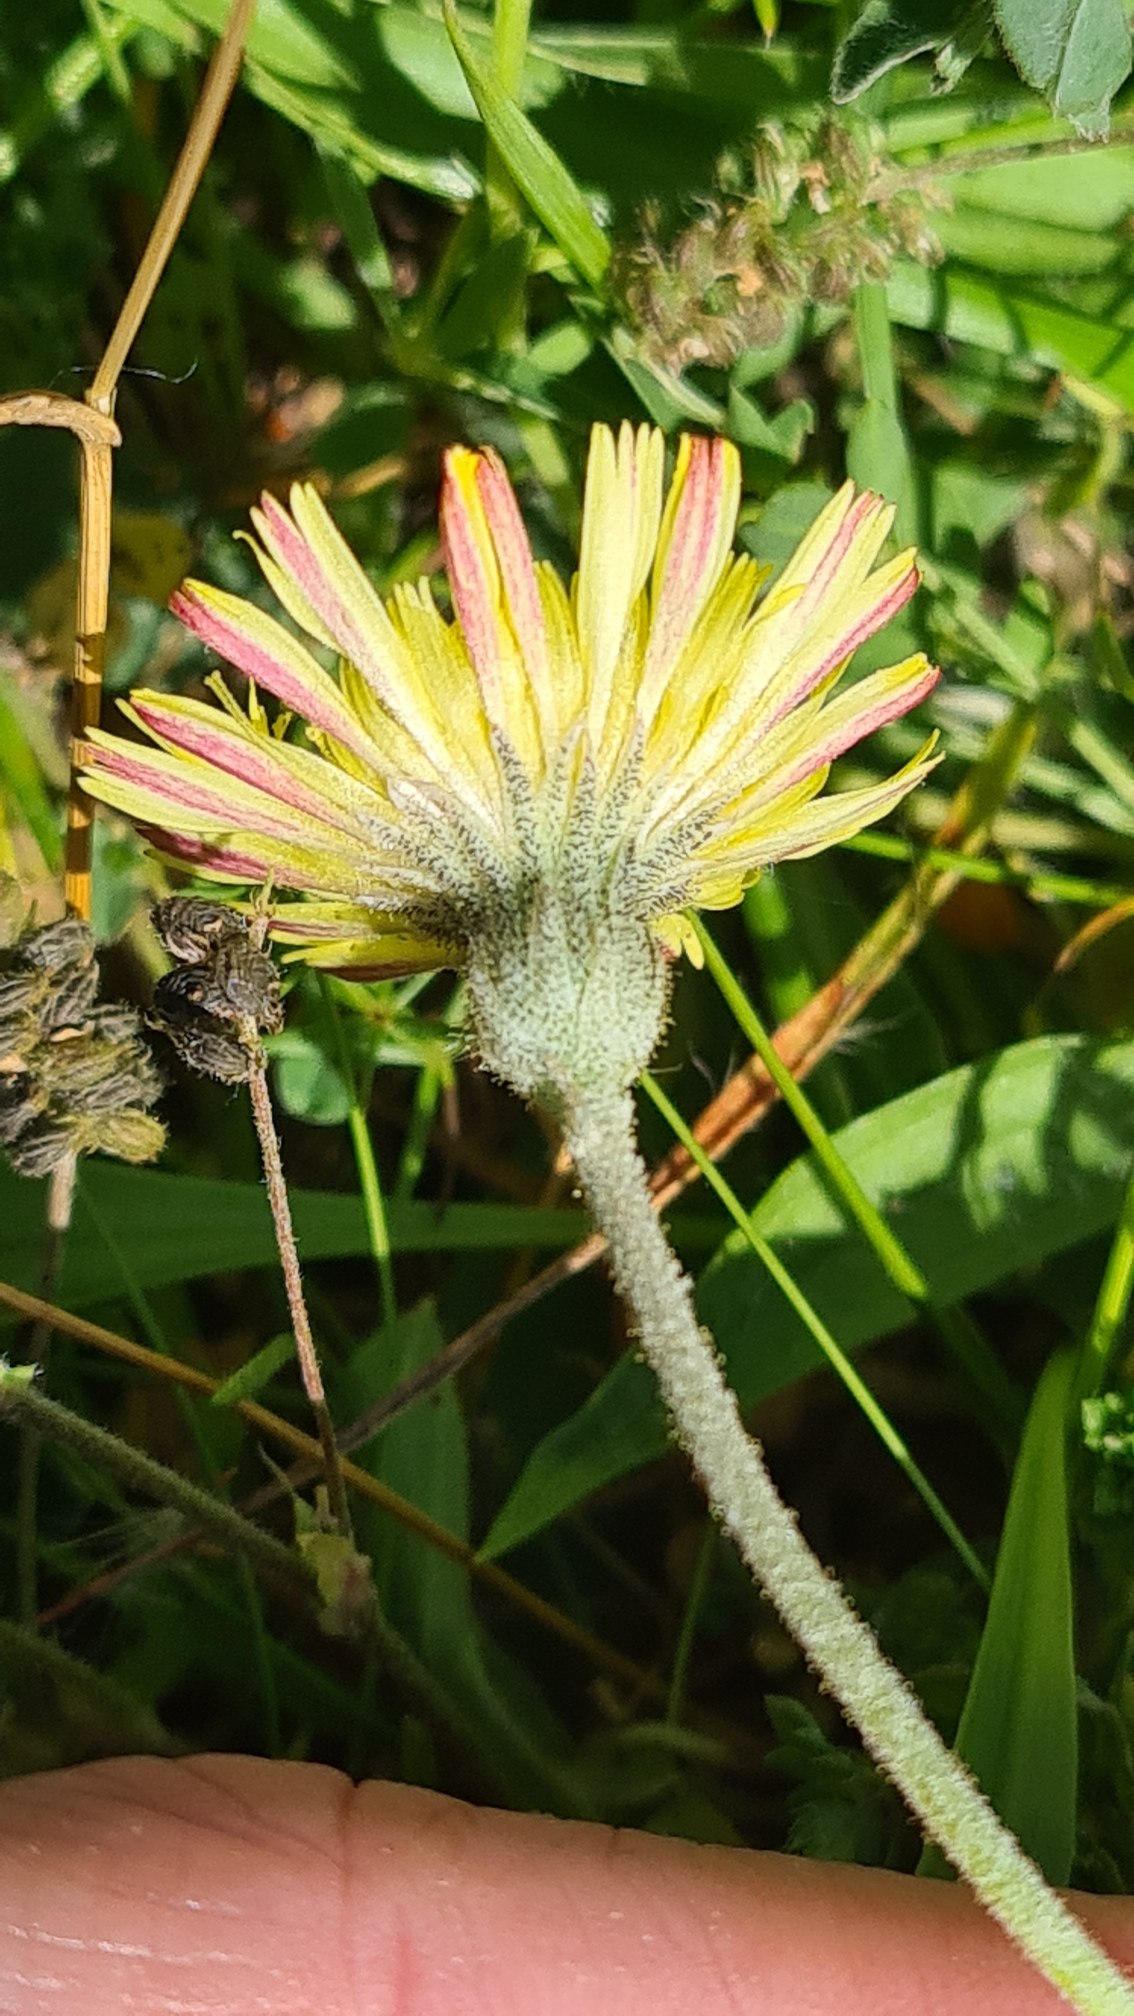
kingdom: Plantae
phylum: Tracheophyta
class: Magnoliopsida
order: Asterales
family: Asteraceae
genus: Pilosella
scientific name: Pilosella officinarum
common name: Håret høgeurt
